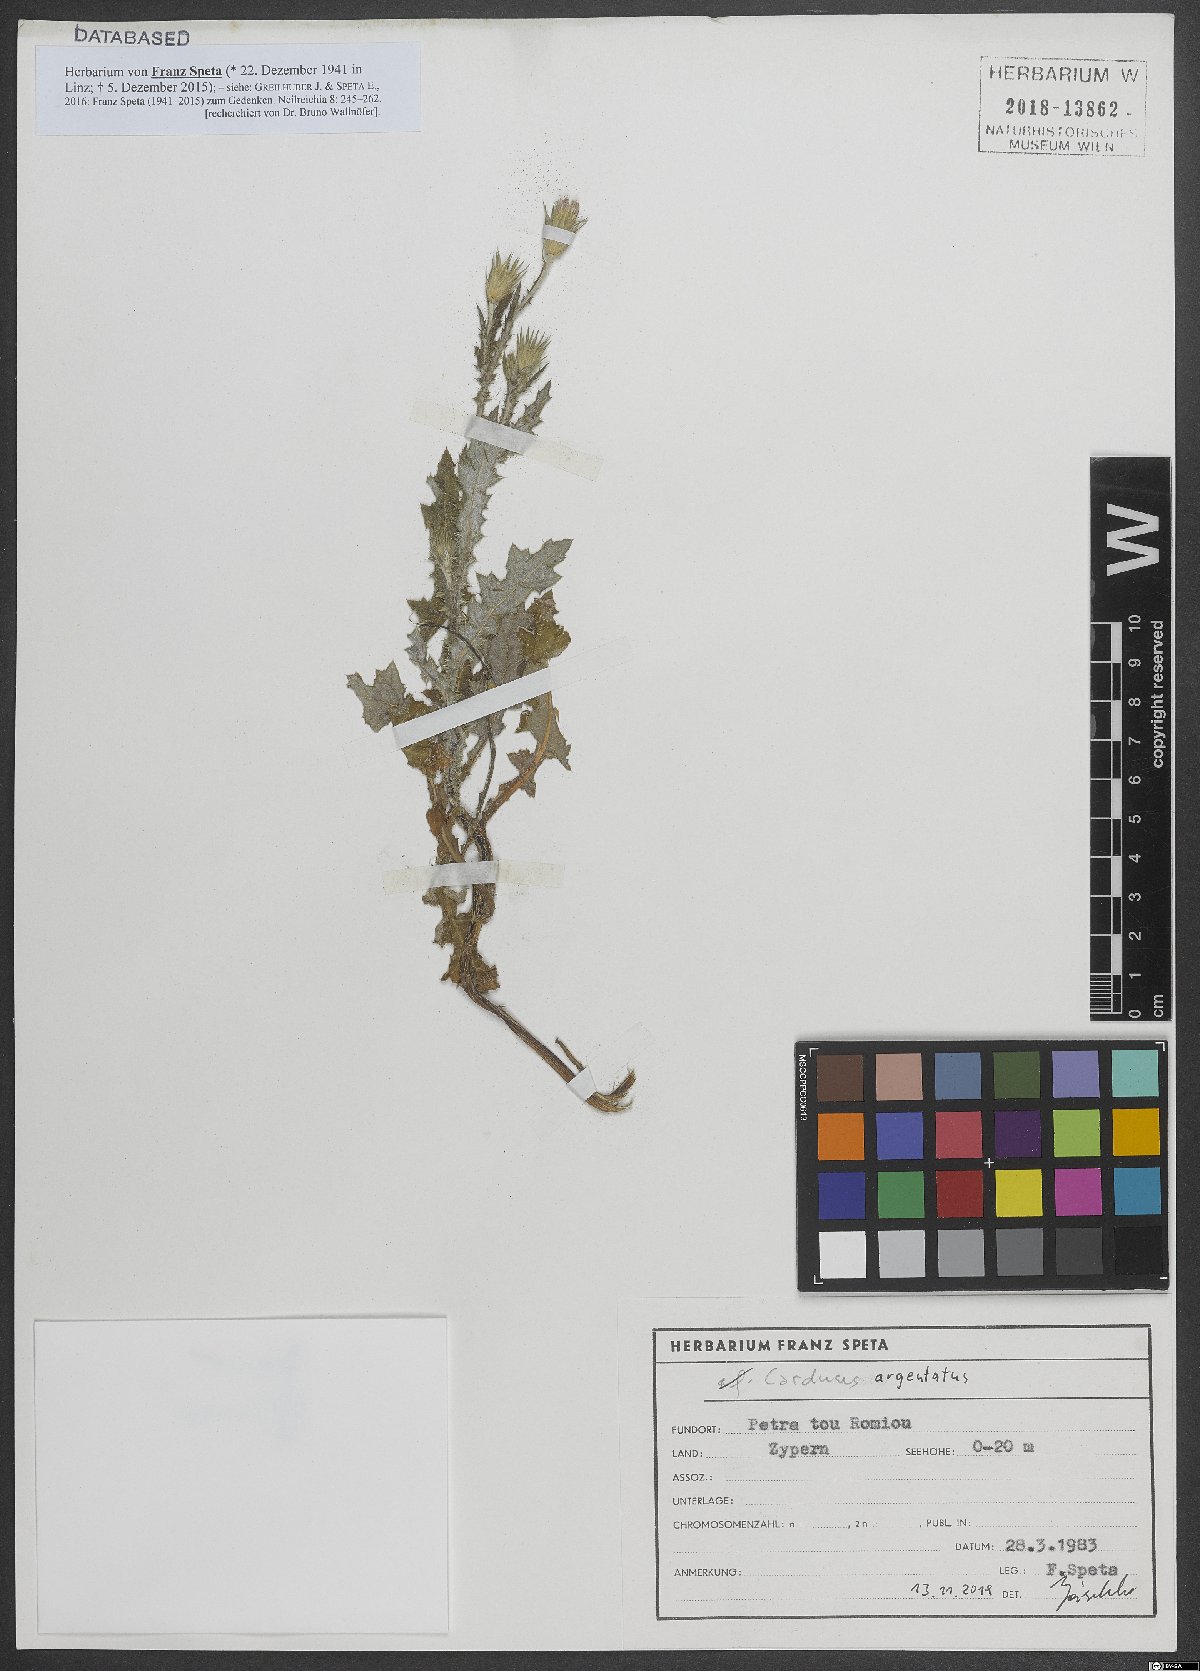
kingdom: Plantae
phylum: Tracheophyta
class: Magnoliopsida
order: Asterales
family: Asteraceae
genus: Carduus
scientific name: Carduus argentatus
